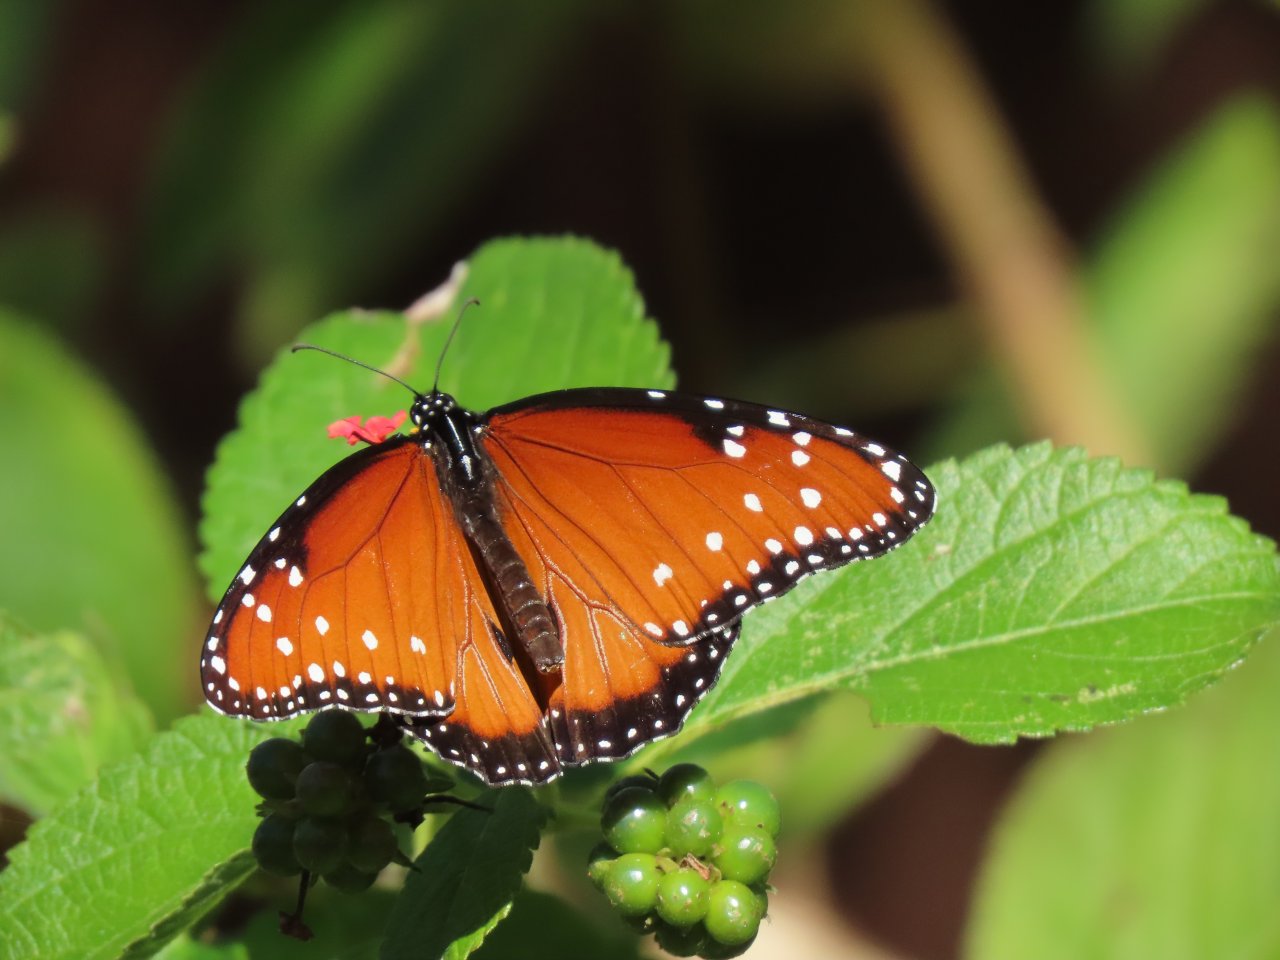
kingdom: Animalia
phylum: Arthropoda
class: Insecta
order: Lepidoptera
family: Nymphalidae
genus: Danaus
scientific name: Danaus gilippus
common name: Queen
